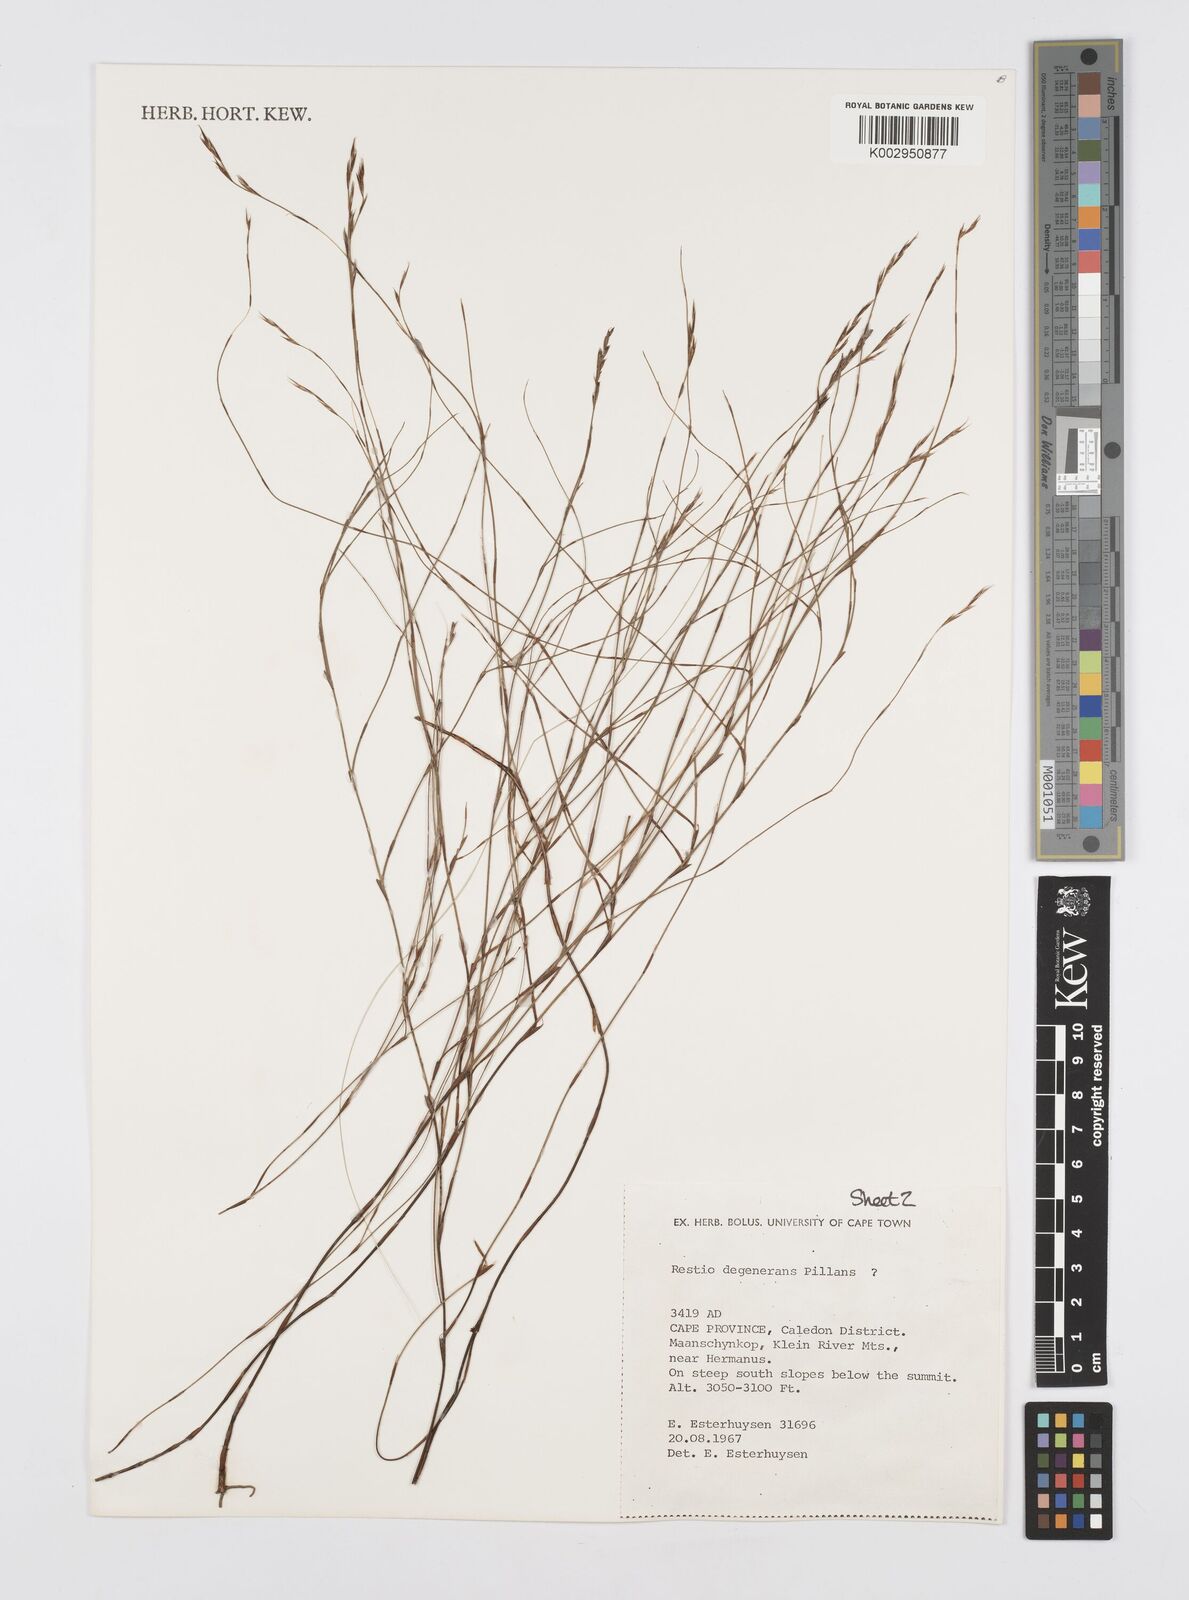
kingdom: Plantae
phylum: Tracheophyta
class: Liliopsida
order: Poales
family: Restionaceae
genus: Restio
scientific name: Restio degenerans
